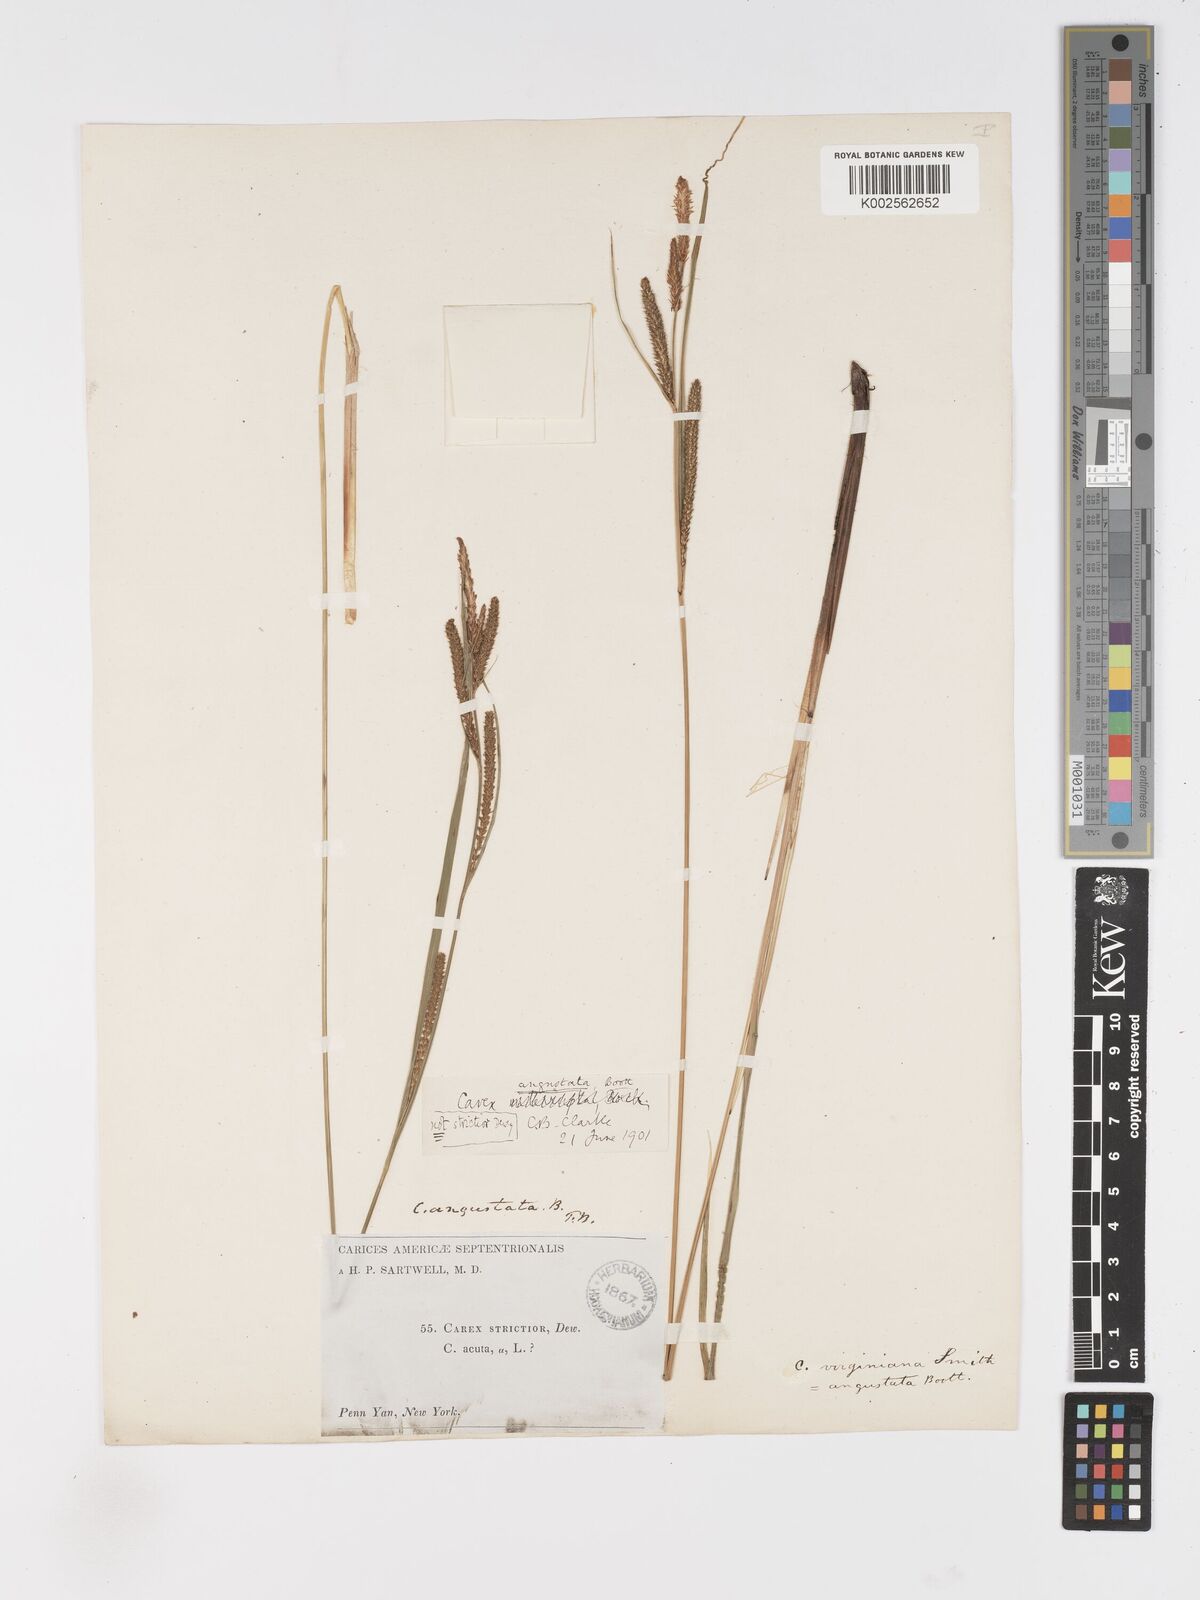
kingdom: Plantae
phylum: Tracheophyta
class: Liliopsida
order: Poales
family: Cyperaceae
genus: Carex
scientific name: Carex stricta
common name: Hummock sedge
